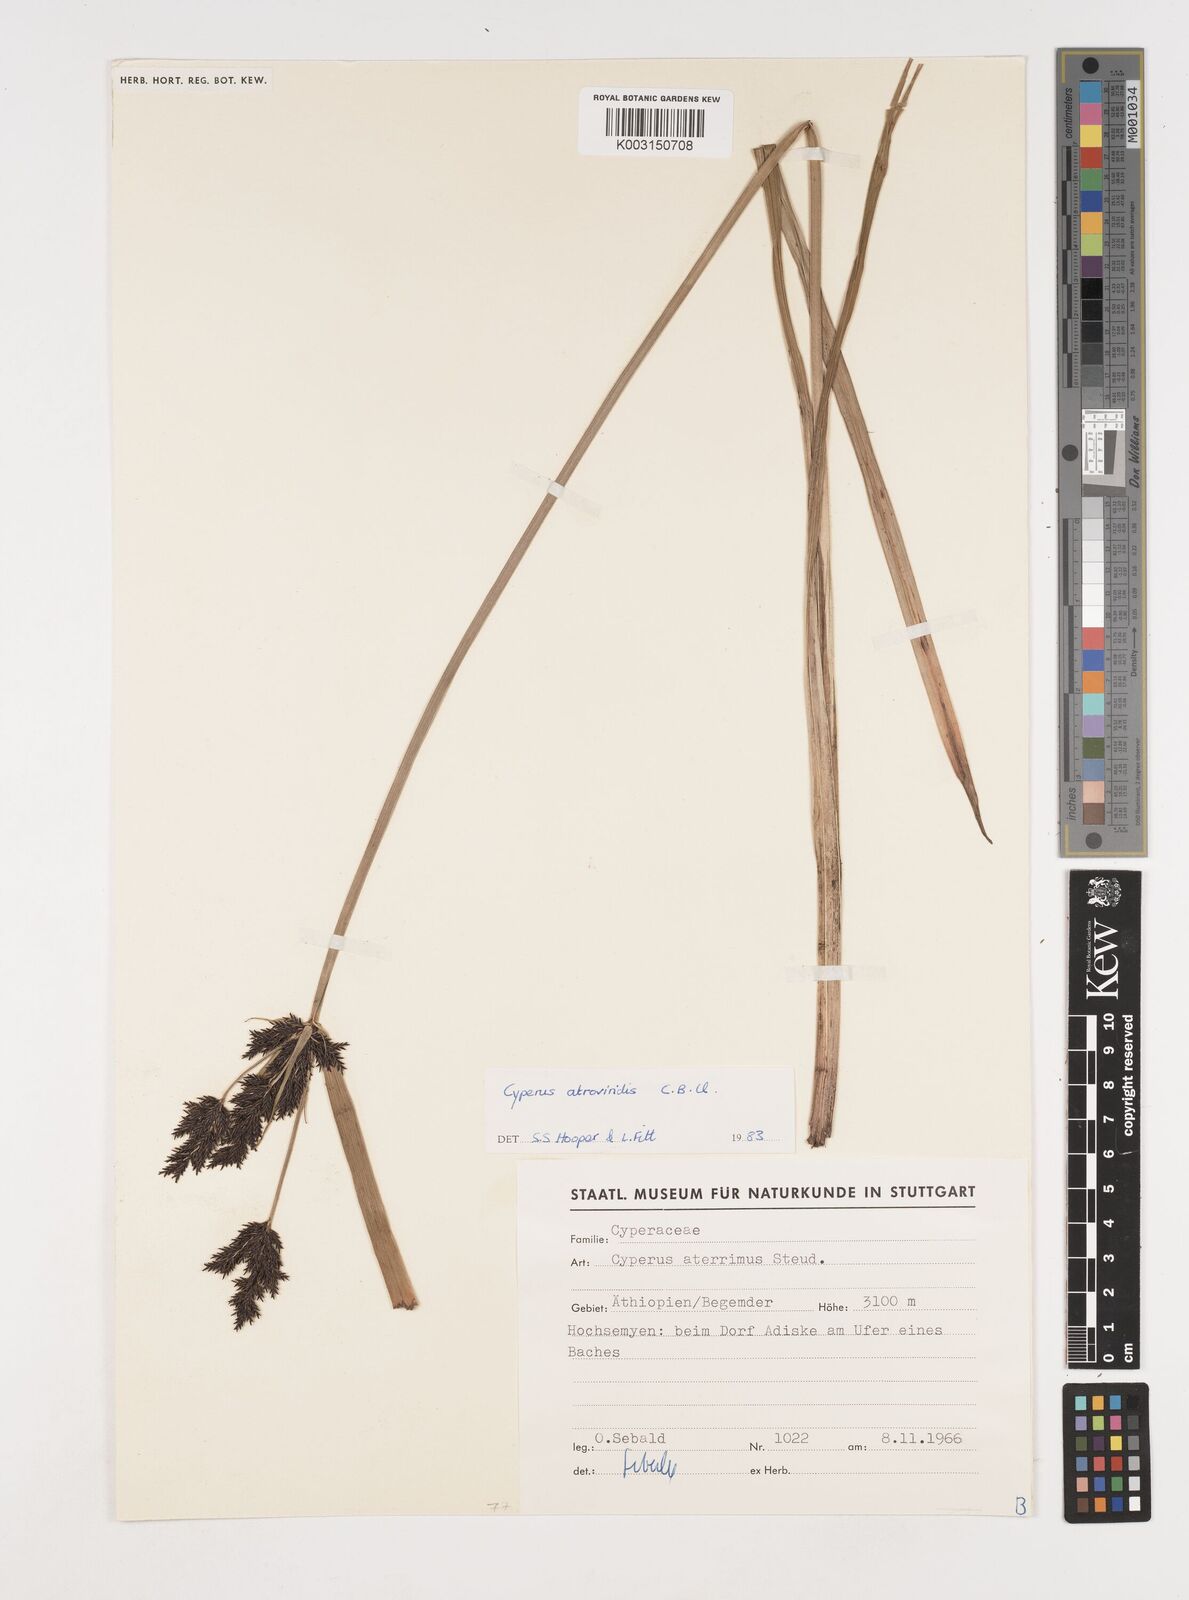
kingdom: Plantae
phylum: Tracheophyta
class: Liliopsida
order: Poales
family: Cyperaceae
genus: Cyperus
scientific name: Cyperus aterrimus
